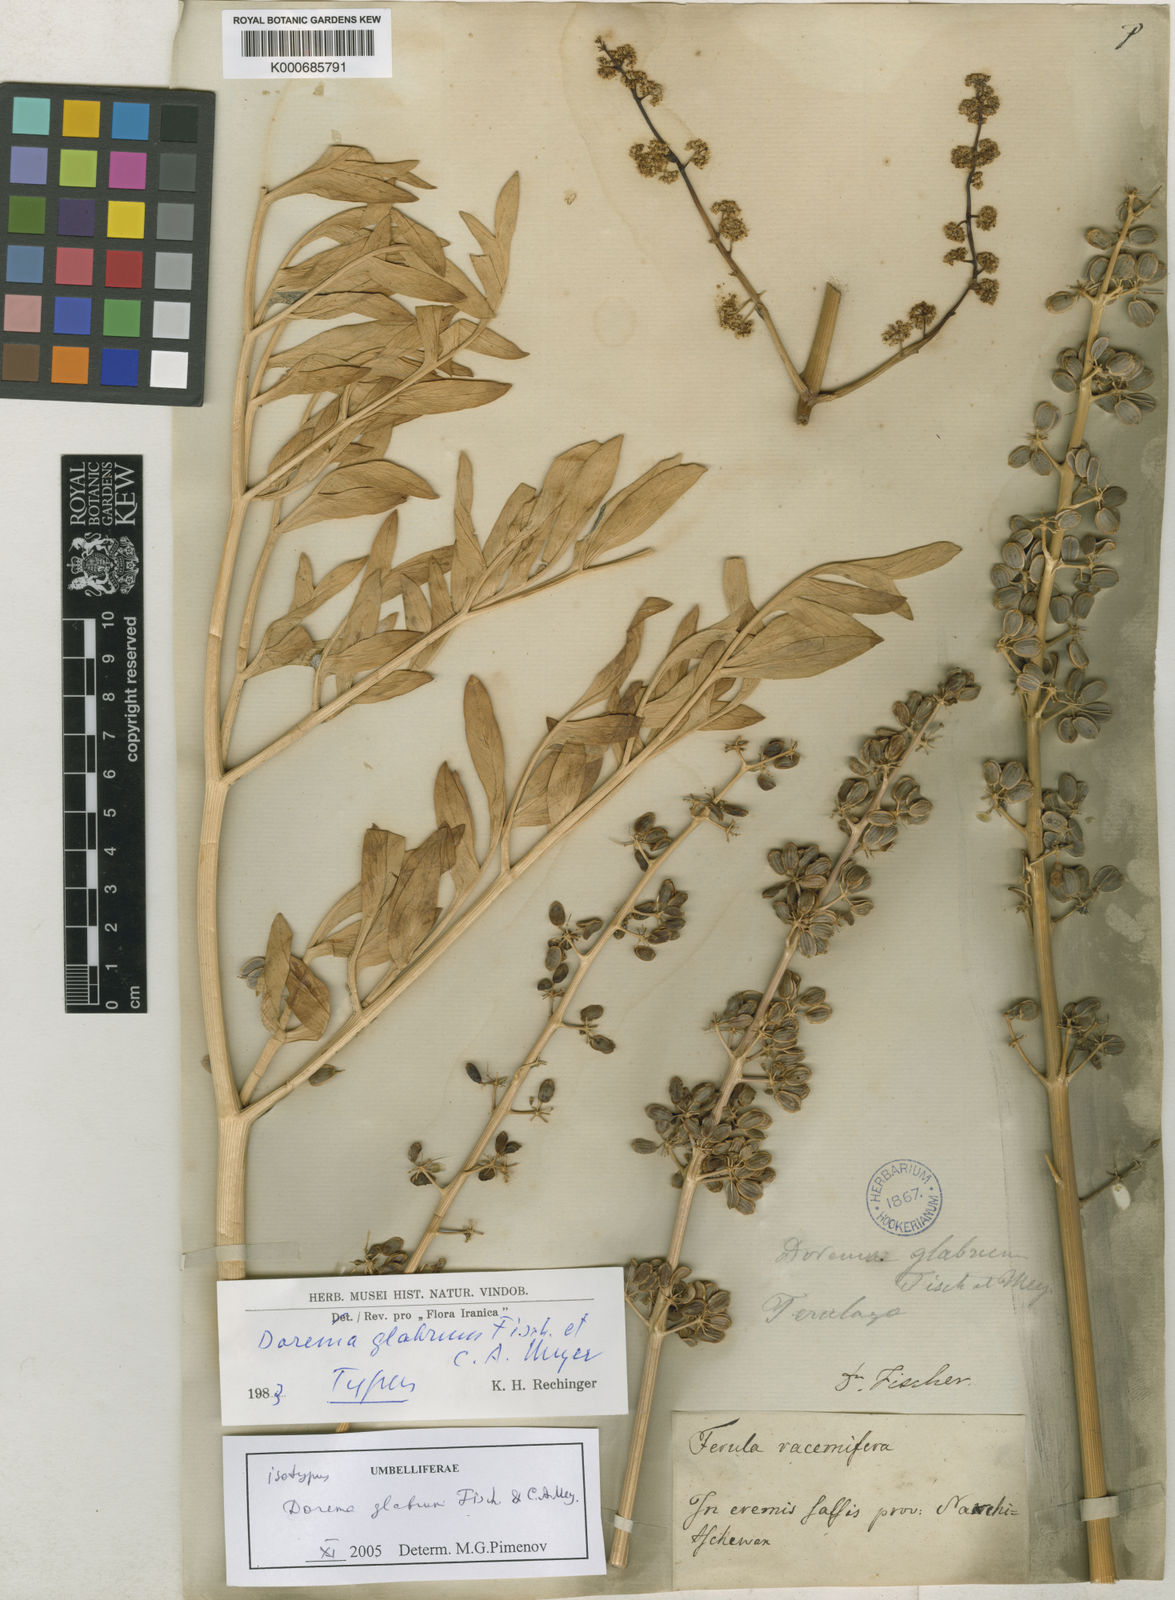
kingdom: Plantae
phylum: Tracheophyta
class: Magnoliopsida
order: Apiales
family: Apiaceae
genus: Ferula
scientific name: Ferula glabrifolia
